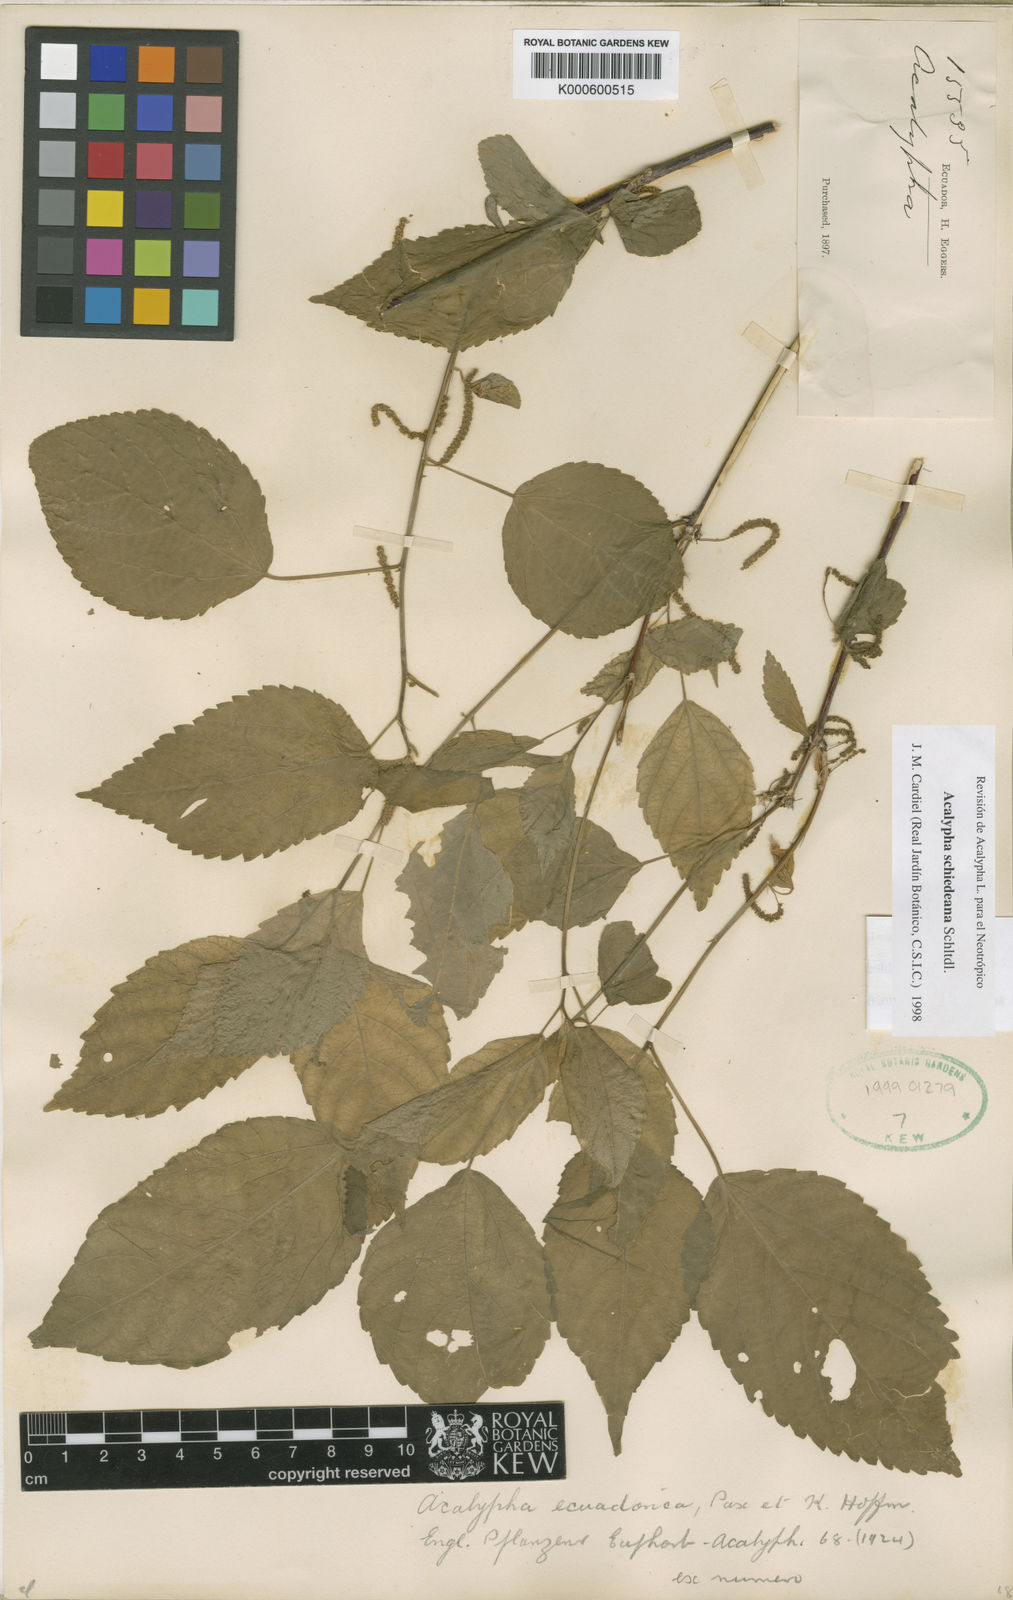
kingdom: Plantae
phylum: Tracheophyta
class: Magnoliopsida
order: Malpighiales
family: Euphorbiaceae
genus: Acalypha
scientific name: Acalypha schiedeana
